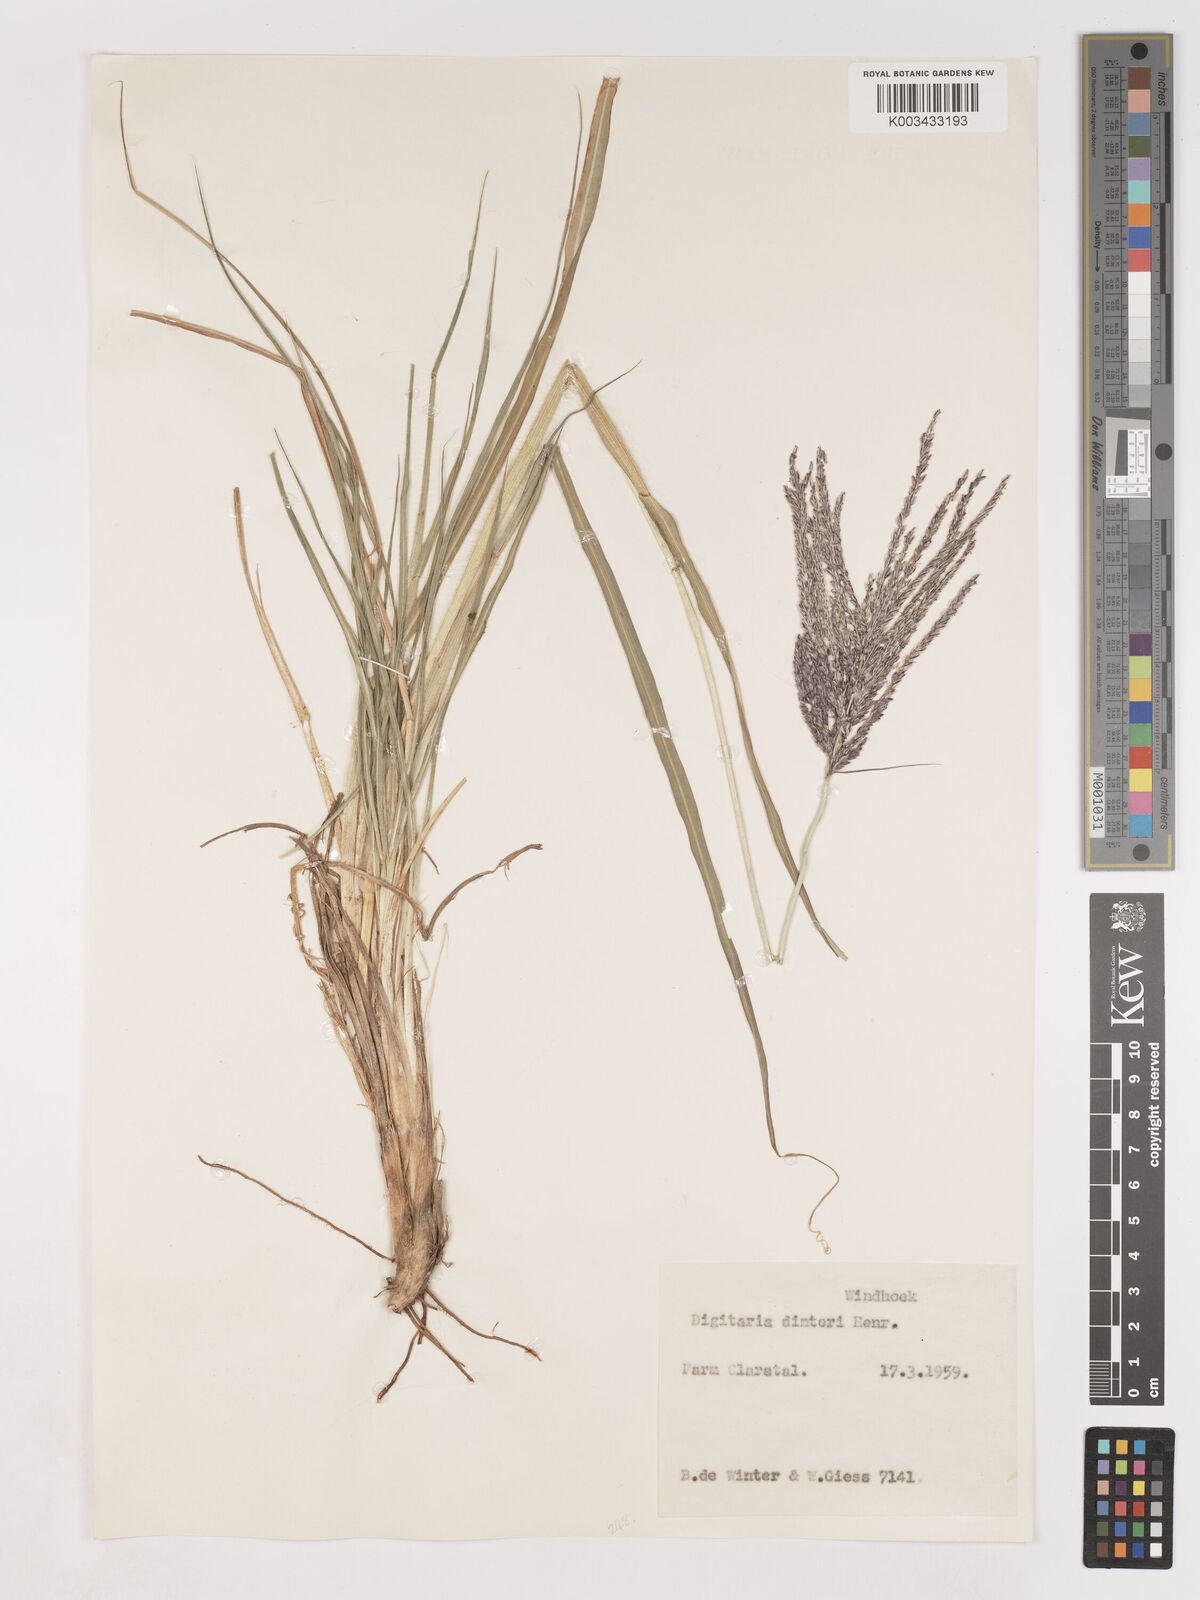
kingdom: Plantae
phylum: Tracheophyta
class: Liliopsida
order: Poales
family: Poaceae
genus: Digitaria
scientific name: Digitaria eriantha
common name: Digitgrass
